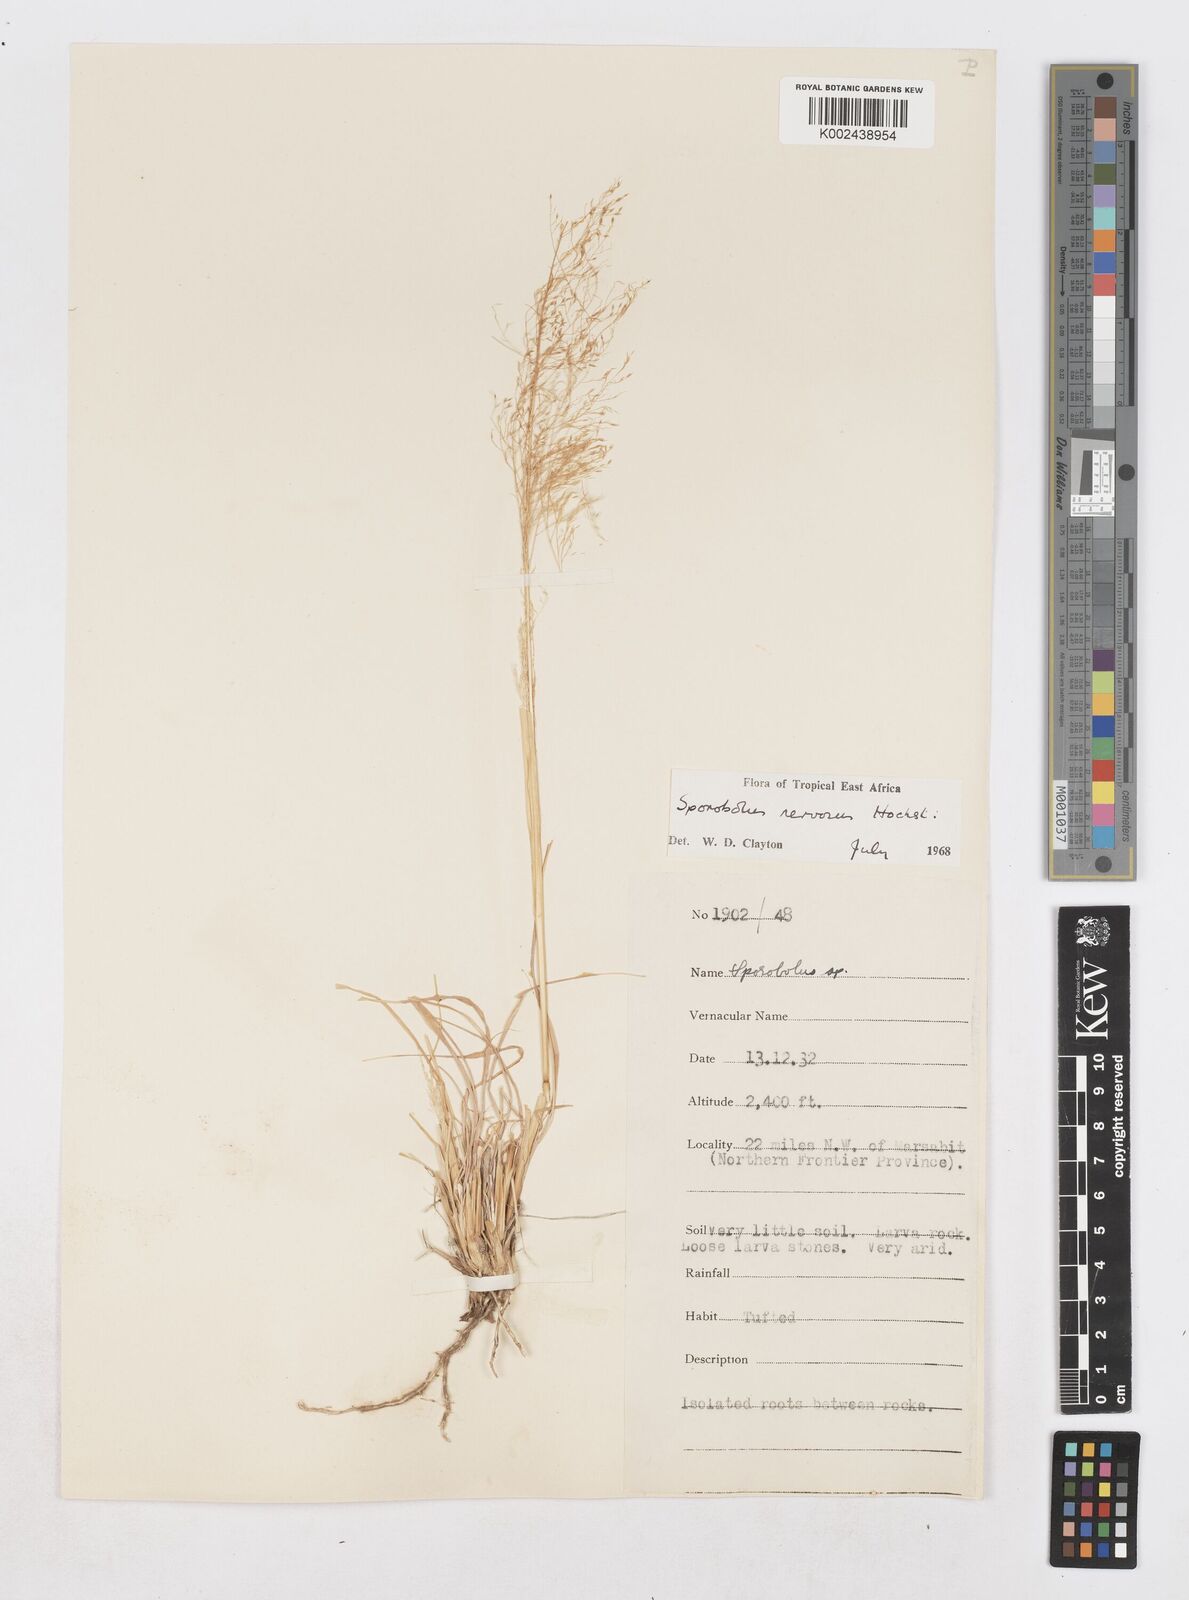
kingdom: Plantae
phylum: Tracheophyta
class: Liliopsida
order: Poales
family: Poaceae
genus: Sporobolus
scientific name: Sporobolus nervosus
